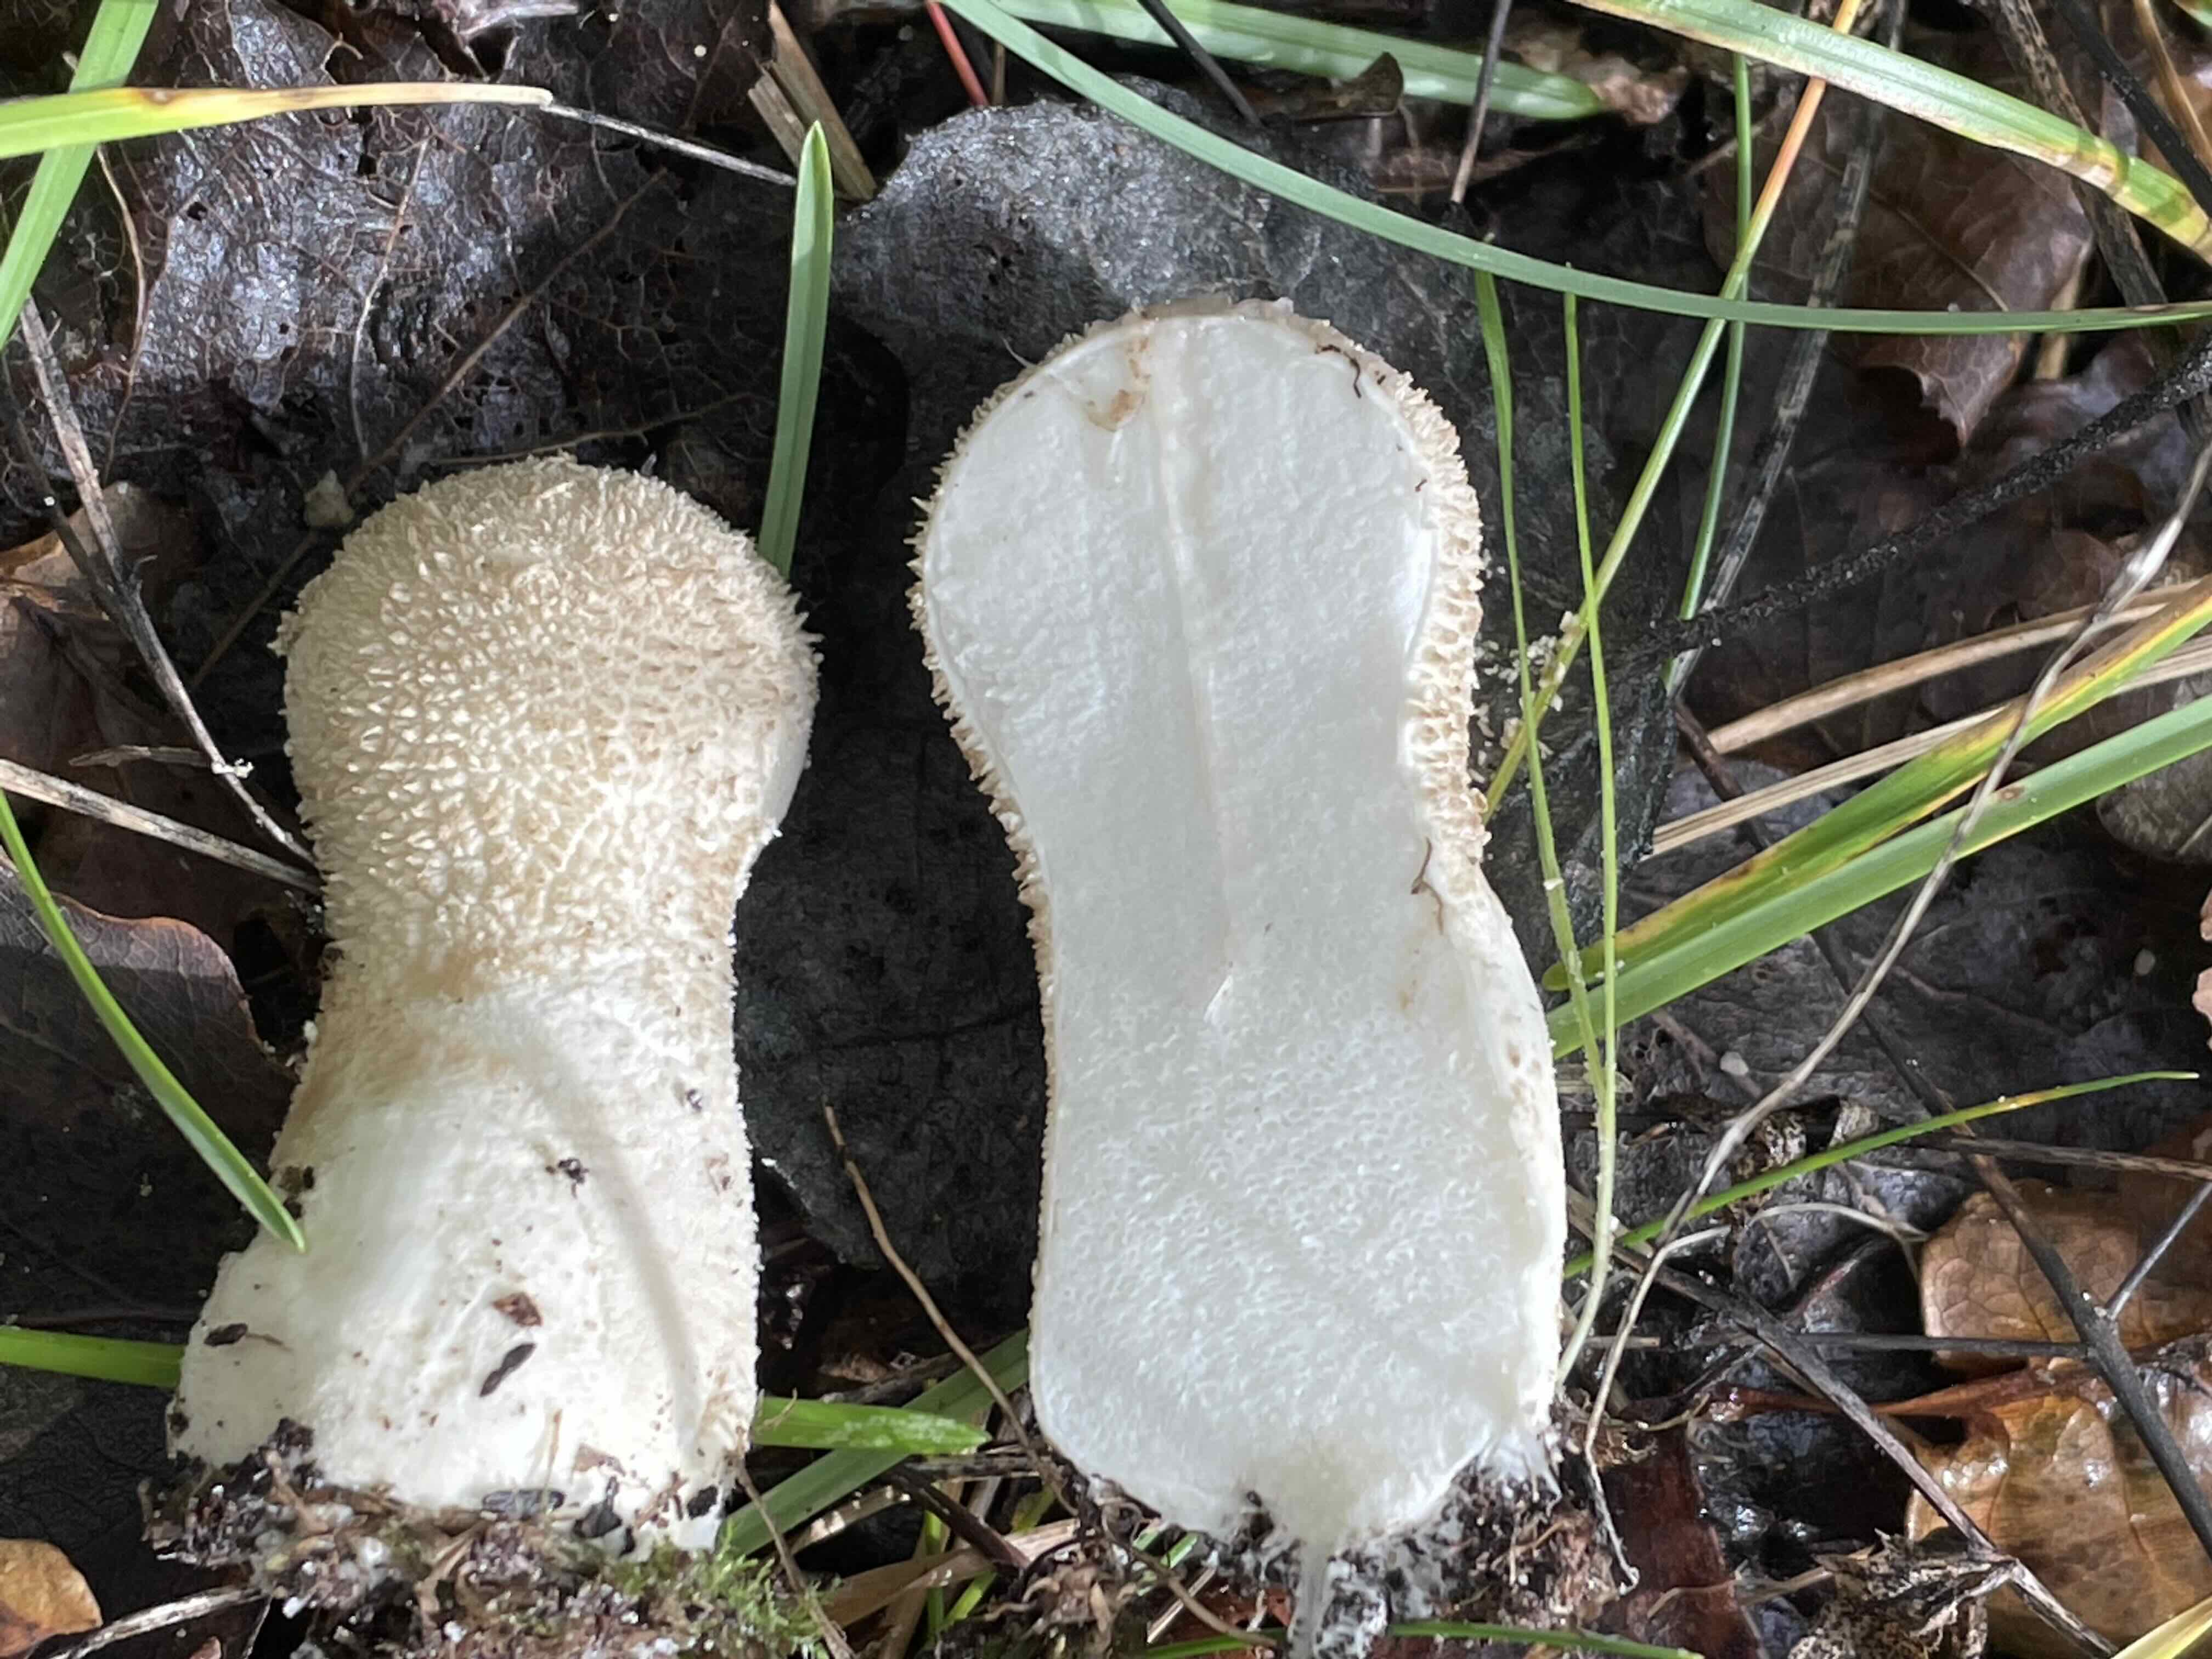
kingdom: Fungi
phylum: Basidiomycota
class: Agaricomycetes
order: Agaricales
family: Lycoperdaceae
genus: Lycoperdon
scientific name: Lycoperdon excipuliforme
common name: højstokket støvbold
